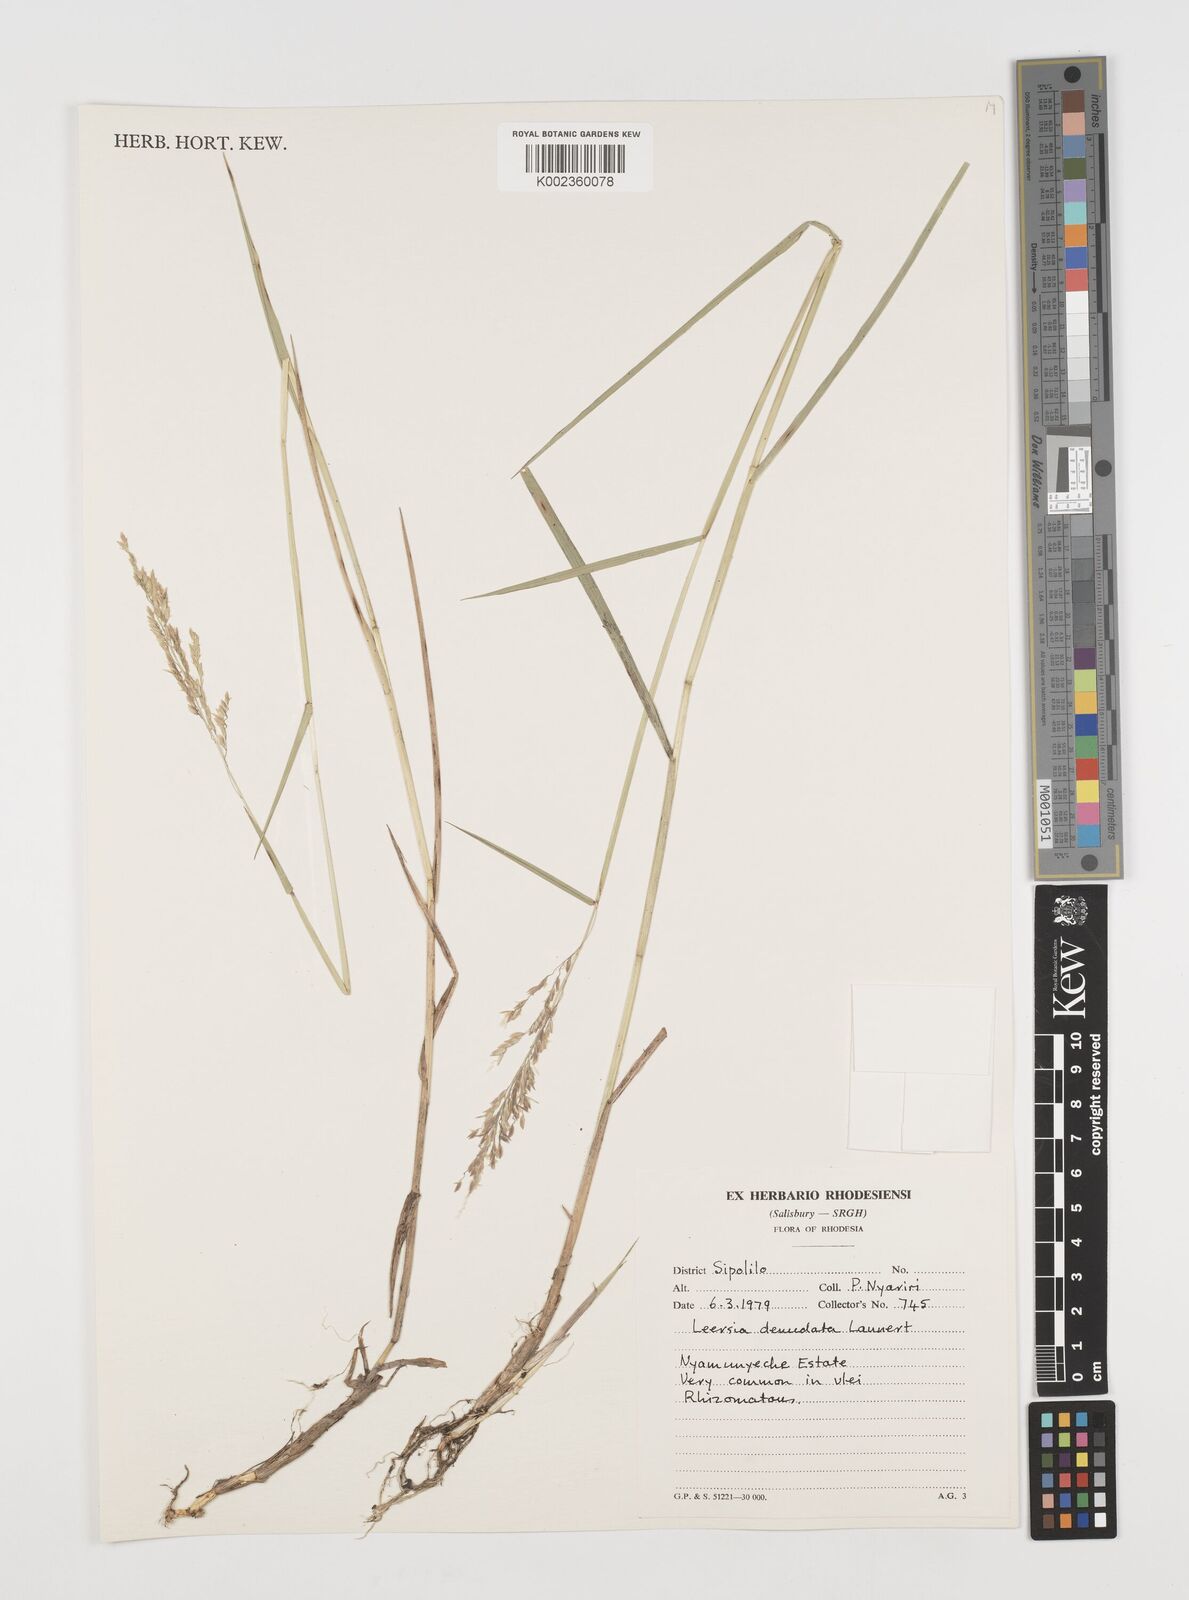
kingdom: Plantae
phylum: Tracheophyta
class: Liliopsida
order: Poales
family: Poaceae
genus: Leersia
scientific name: Leersia denudata
